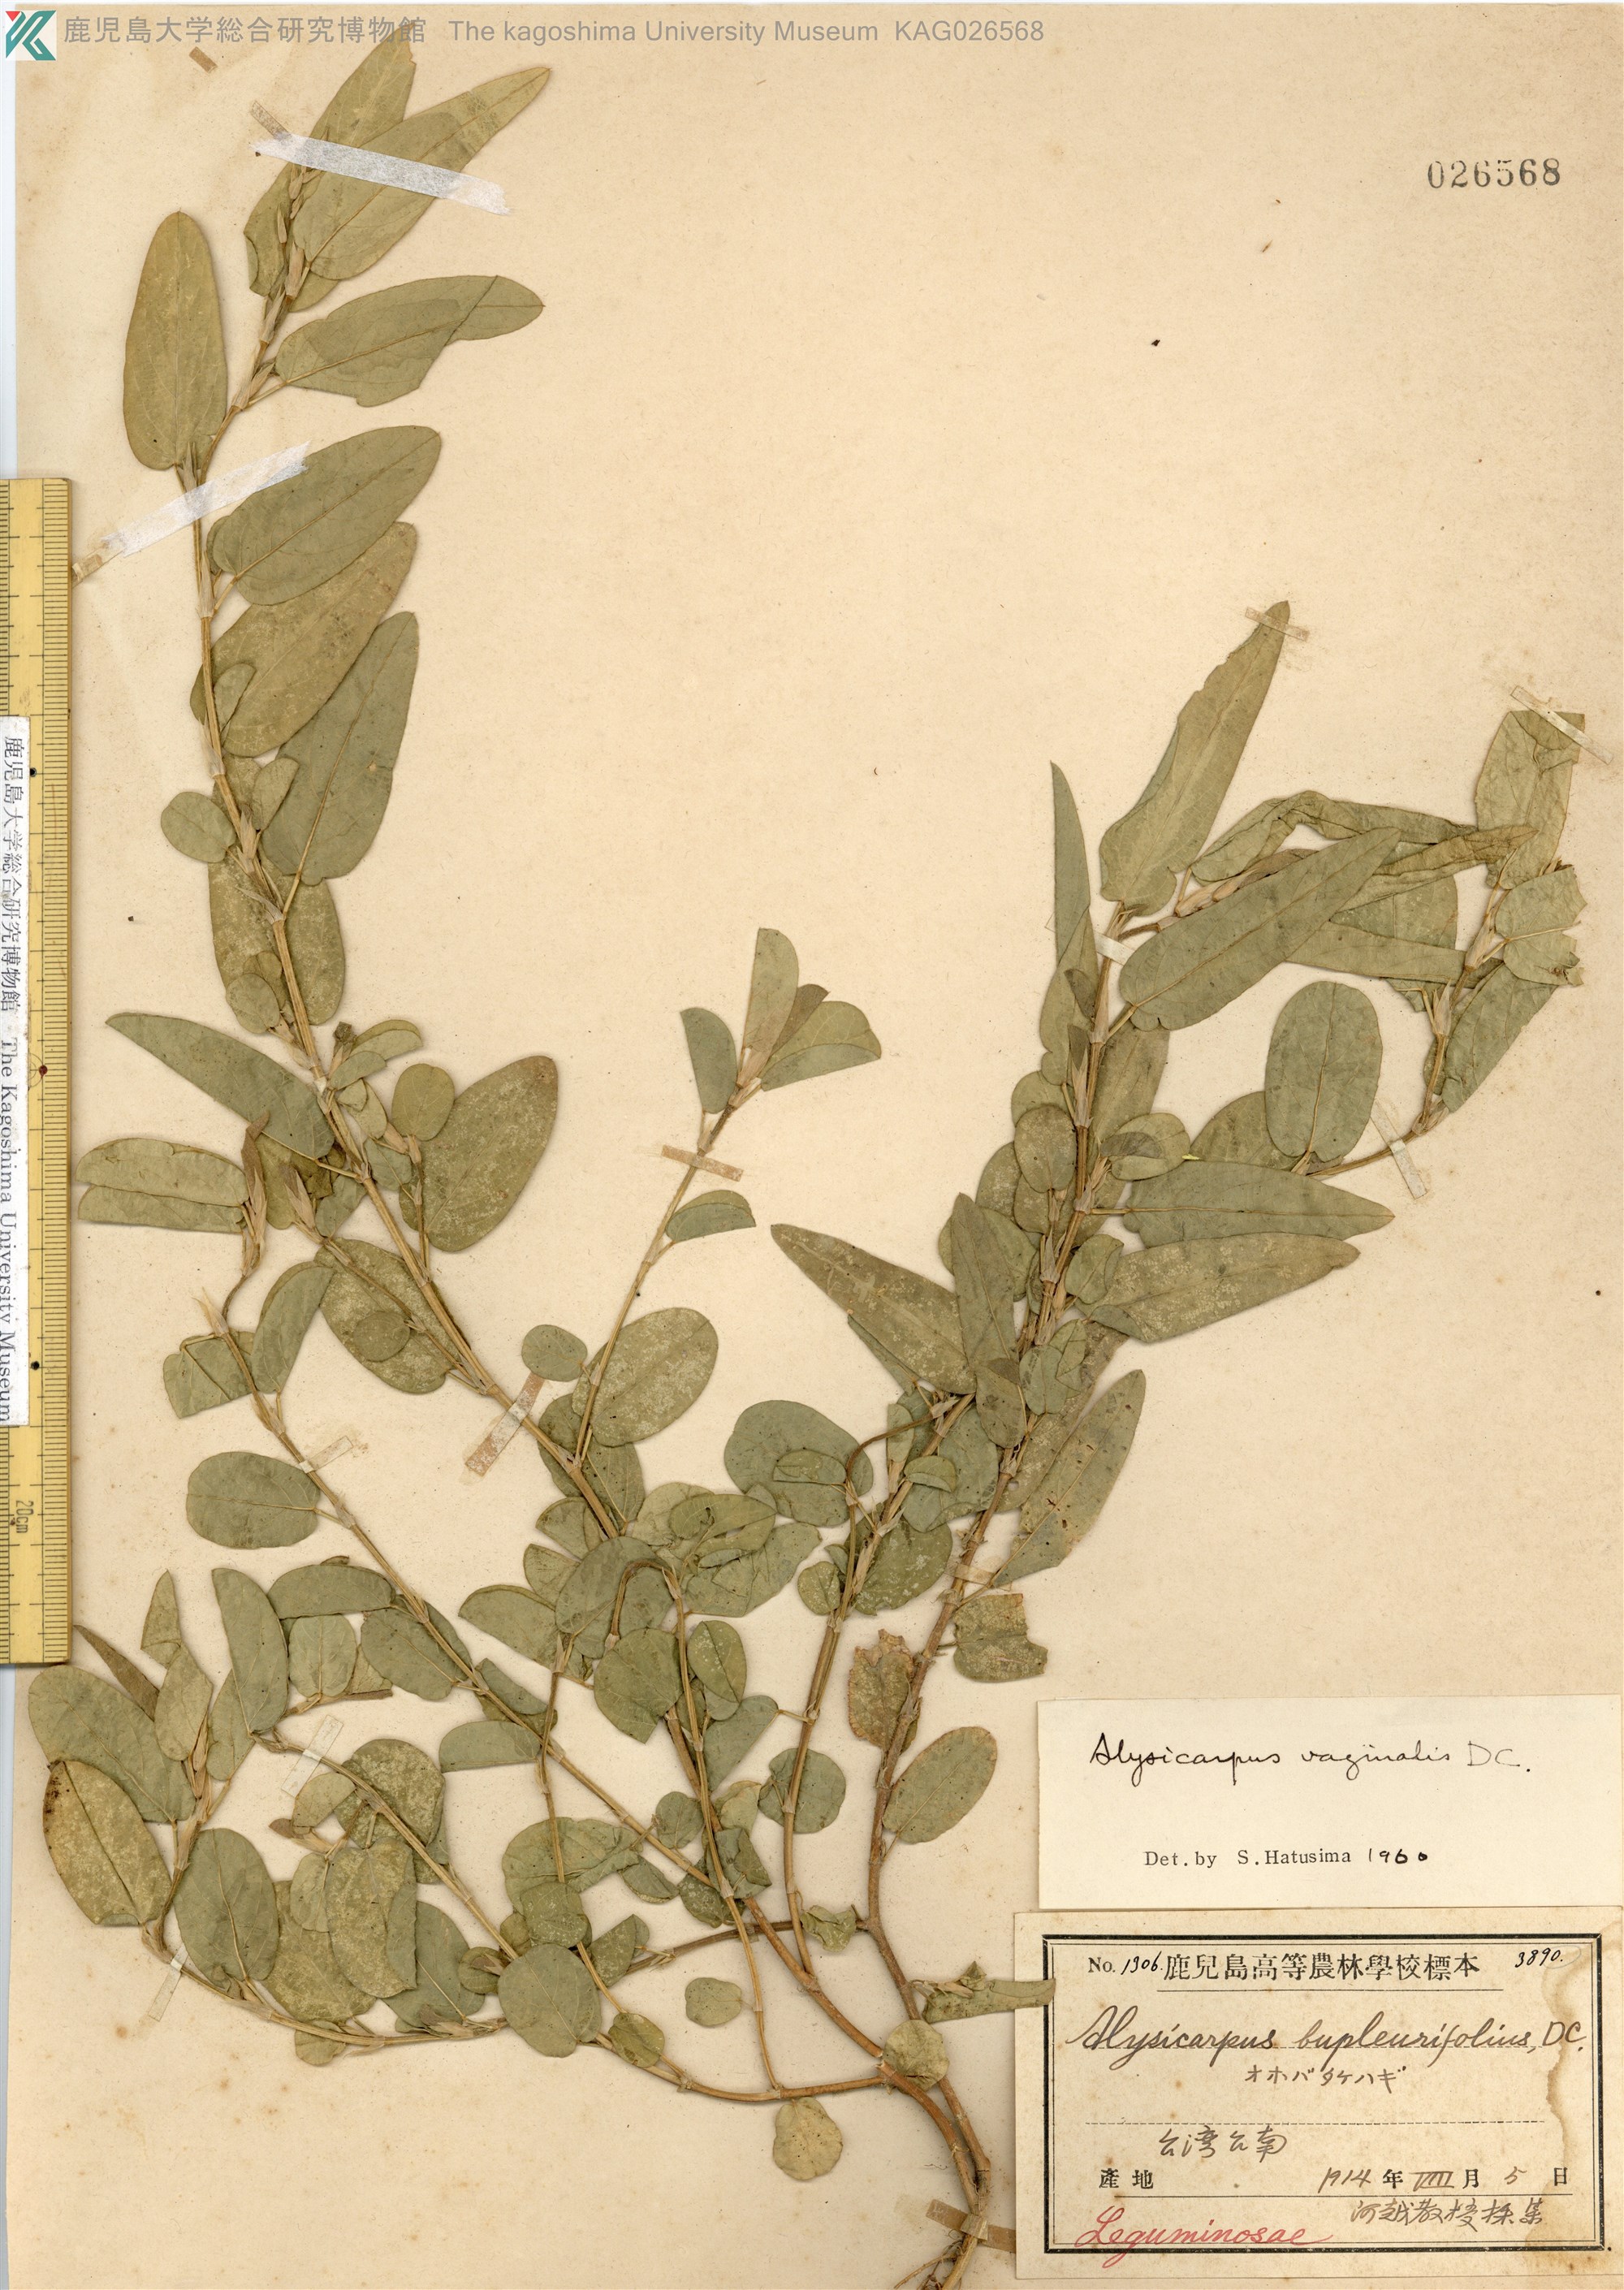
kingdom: Plantae
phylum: Tracheophyta
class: Magnoliopsida
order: Fabales
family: Fabaceae
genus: Alysicarpus
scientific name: Alysicarpus vaginalis
